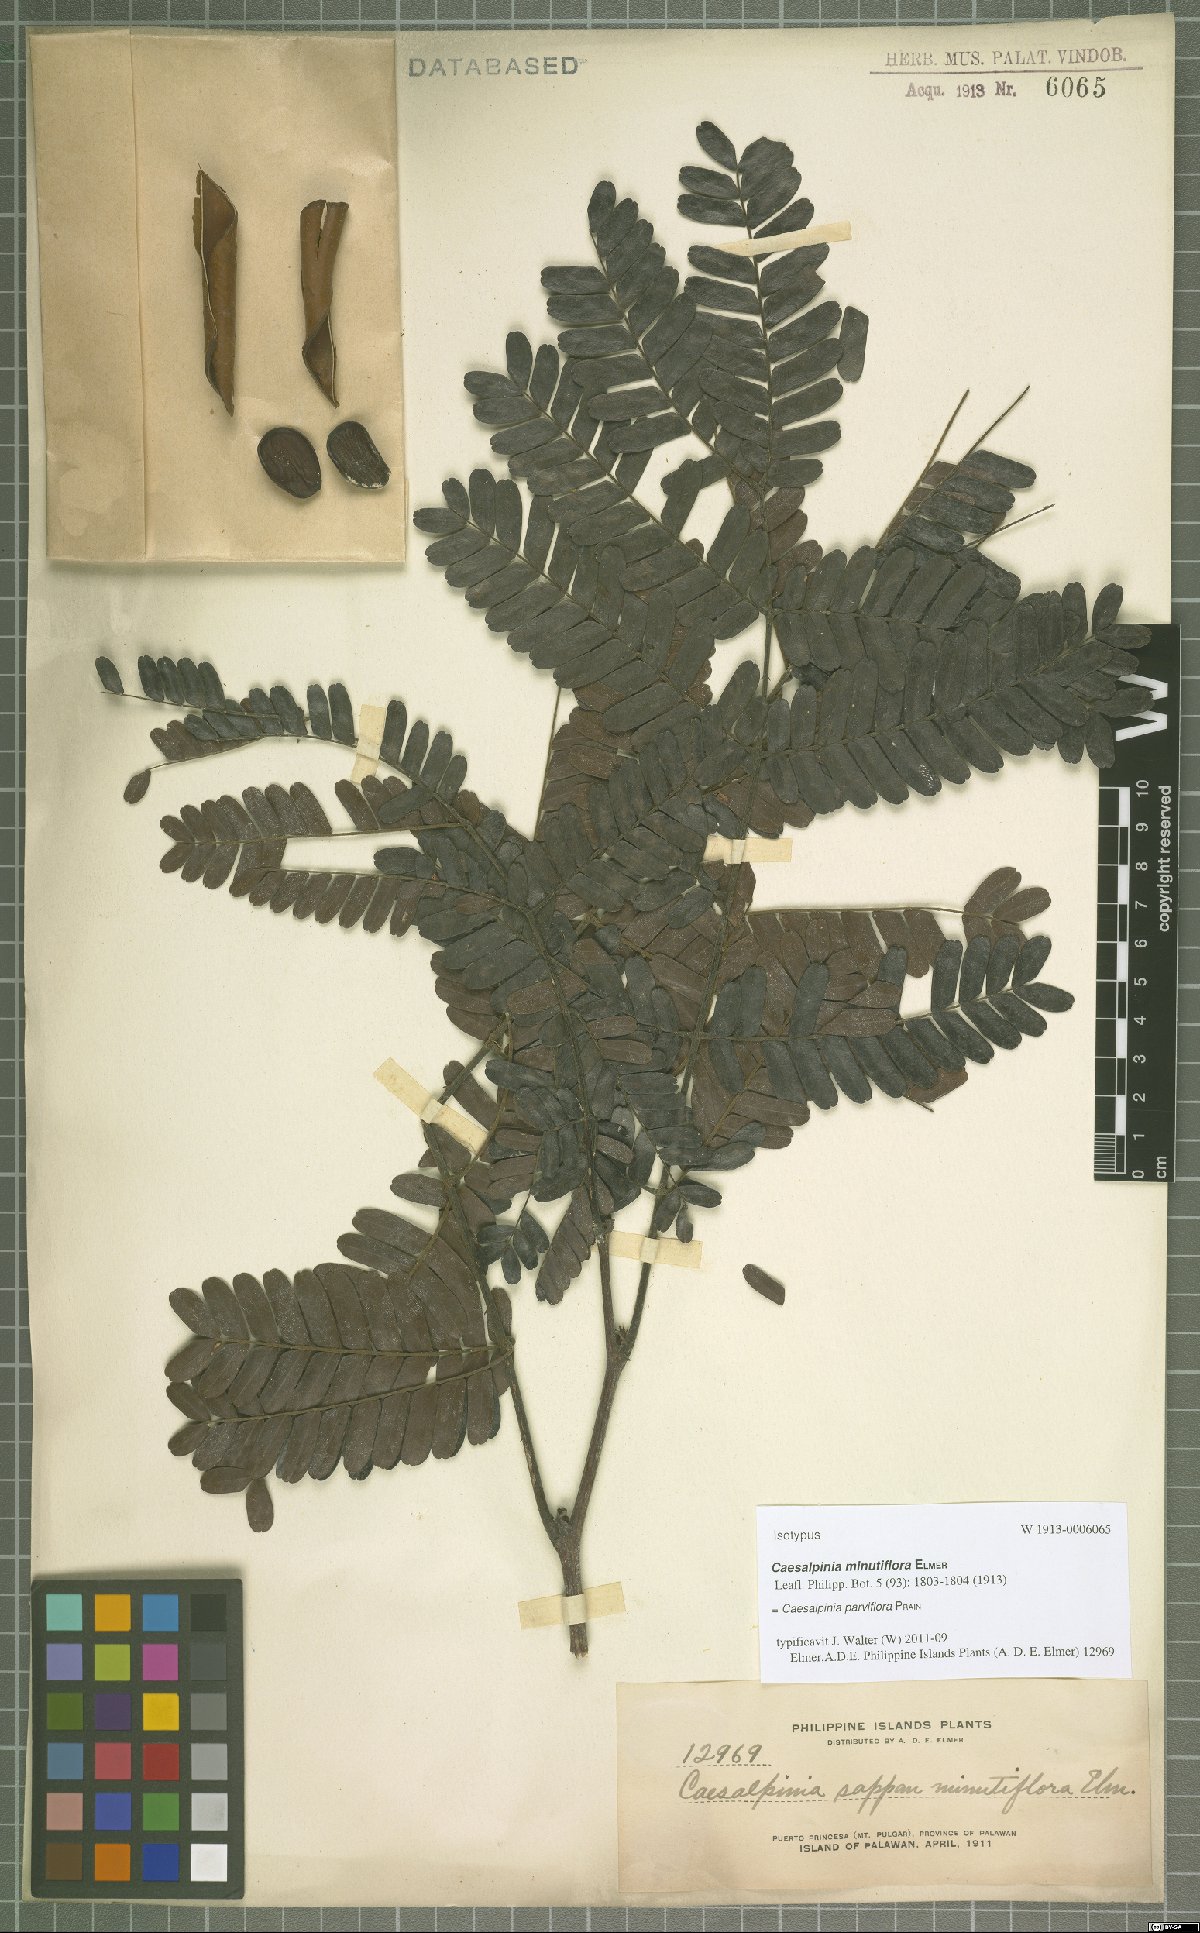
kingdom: Plantae
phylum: Tracheophyta
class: Magnoliopsida
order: Fabales
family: Fabaceae
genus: Biancaea
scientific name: Biancaea parviflora
